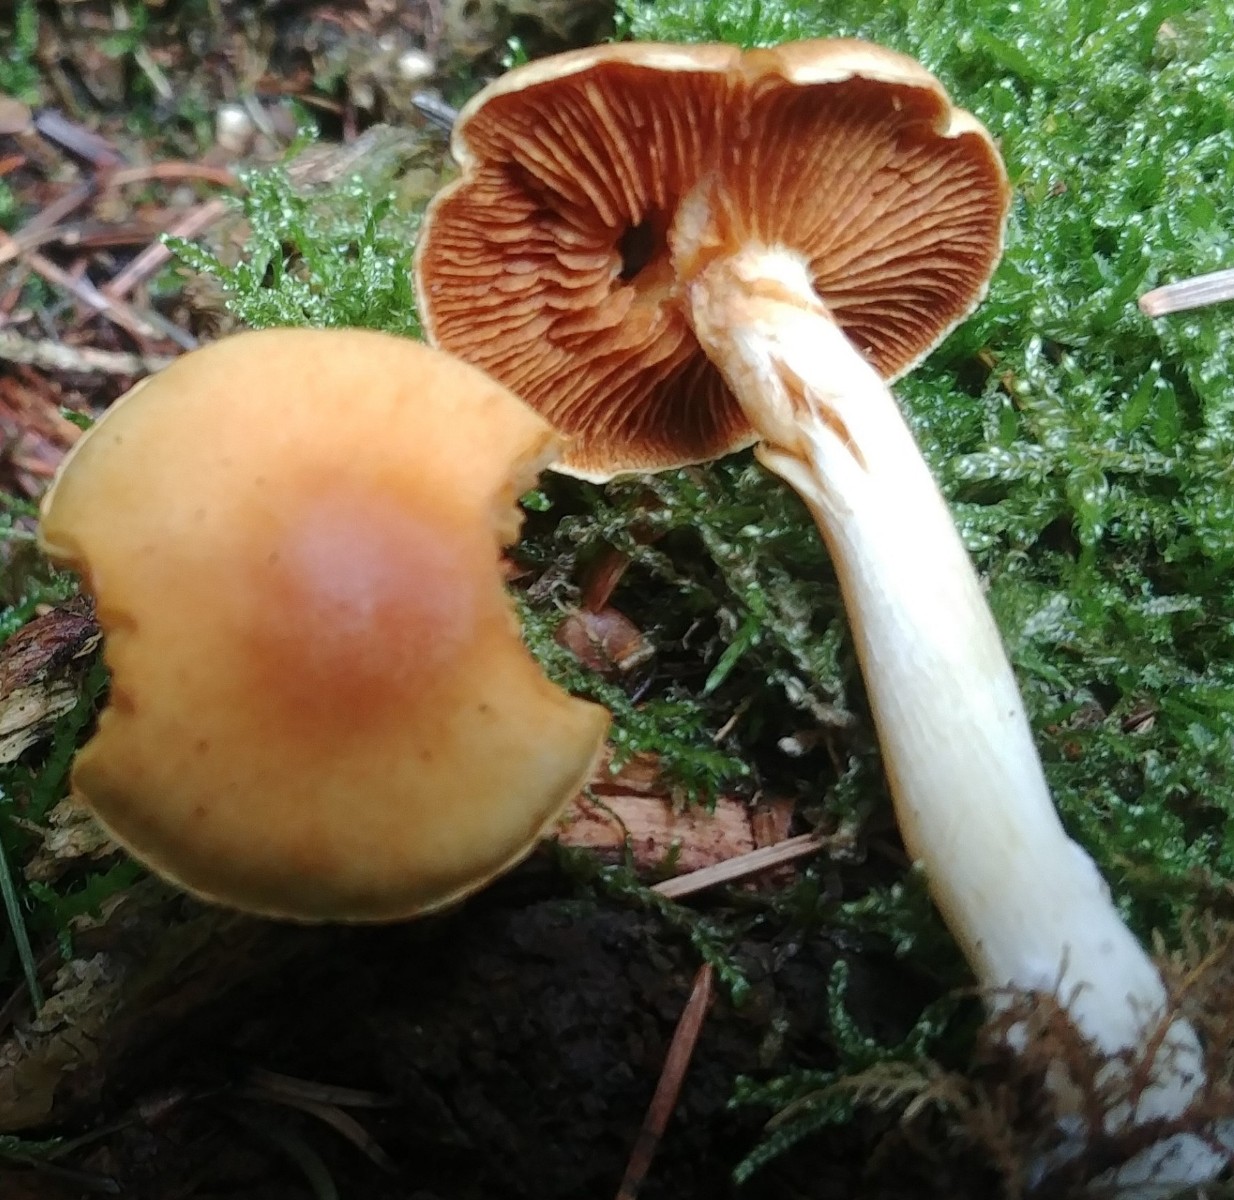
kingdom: Fungi
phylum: Basidiomycota
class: Agaricomycetes
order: Agaricales
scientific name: Agaricales
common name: champignonordenen
